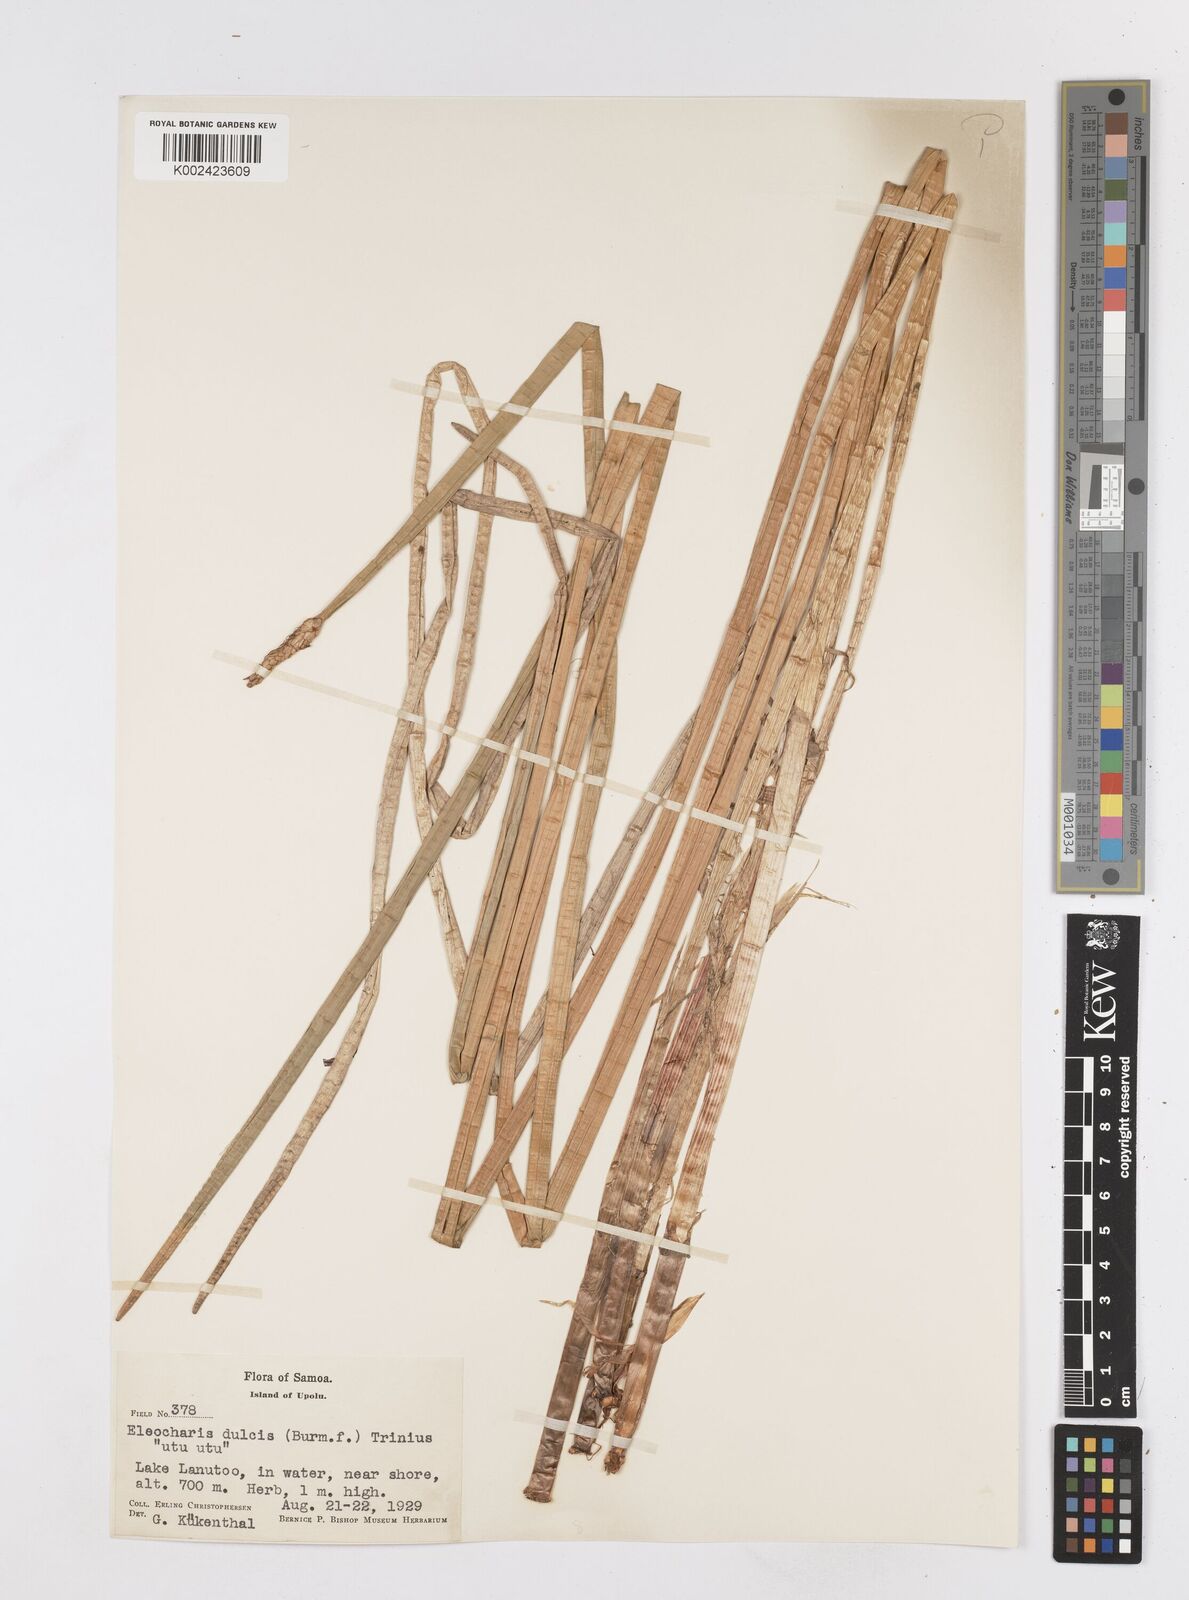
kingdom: Plantae
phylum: Tracheophyta
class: Liliopsida
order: Poales
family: Cyperaceae
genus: Eleocharis
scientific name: Eleocharis dulcis
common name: Chinese water chestnut
